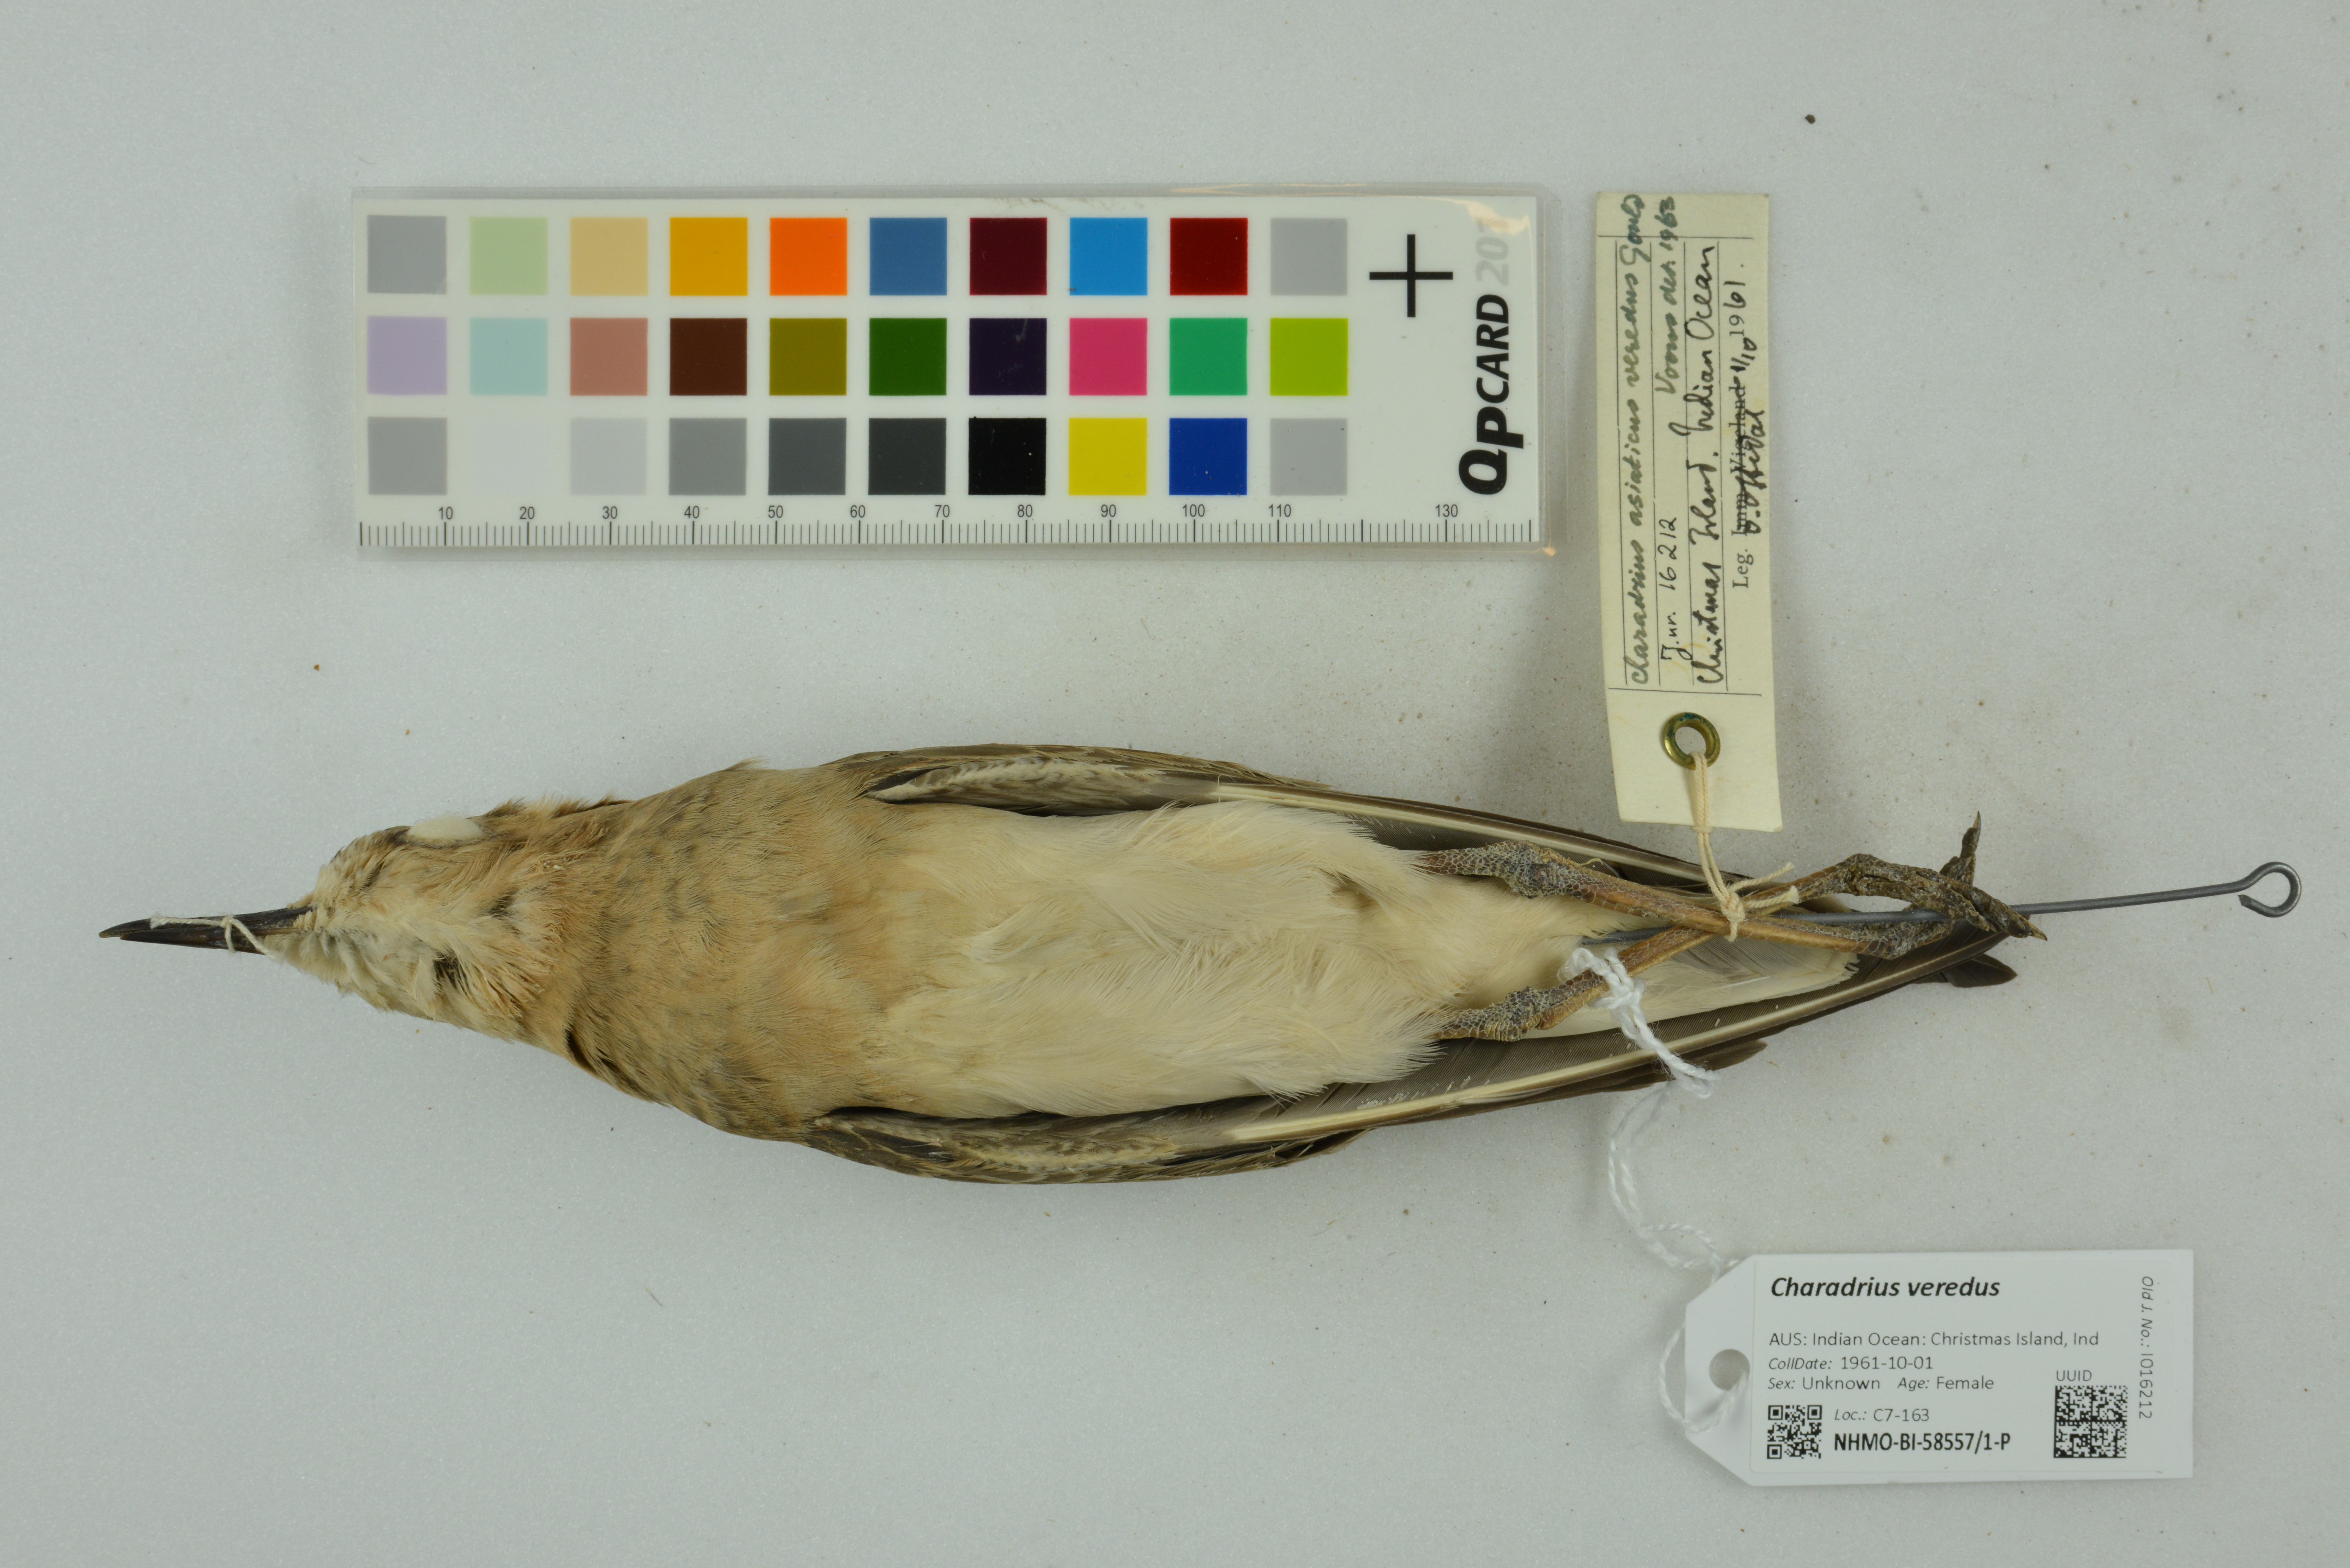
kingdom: Animalia
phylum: Chordata
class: Aves
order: Charadriiformes
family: Charadriidae
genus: Charadrius
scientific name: Charadrius veredus
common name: Oriental plover
